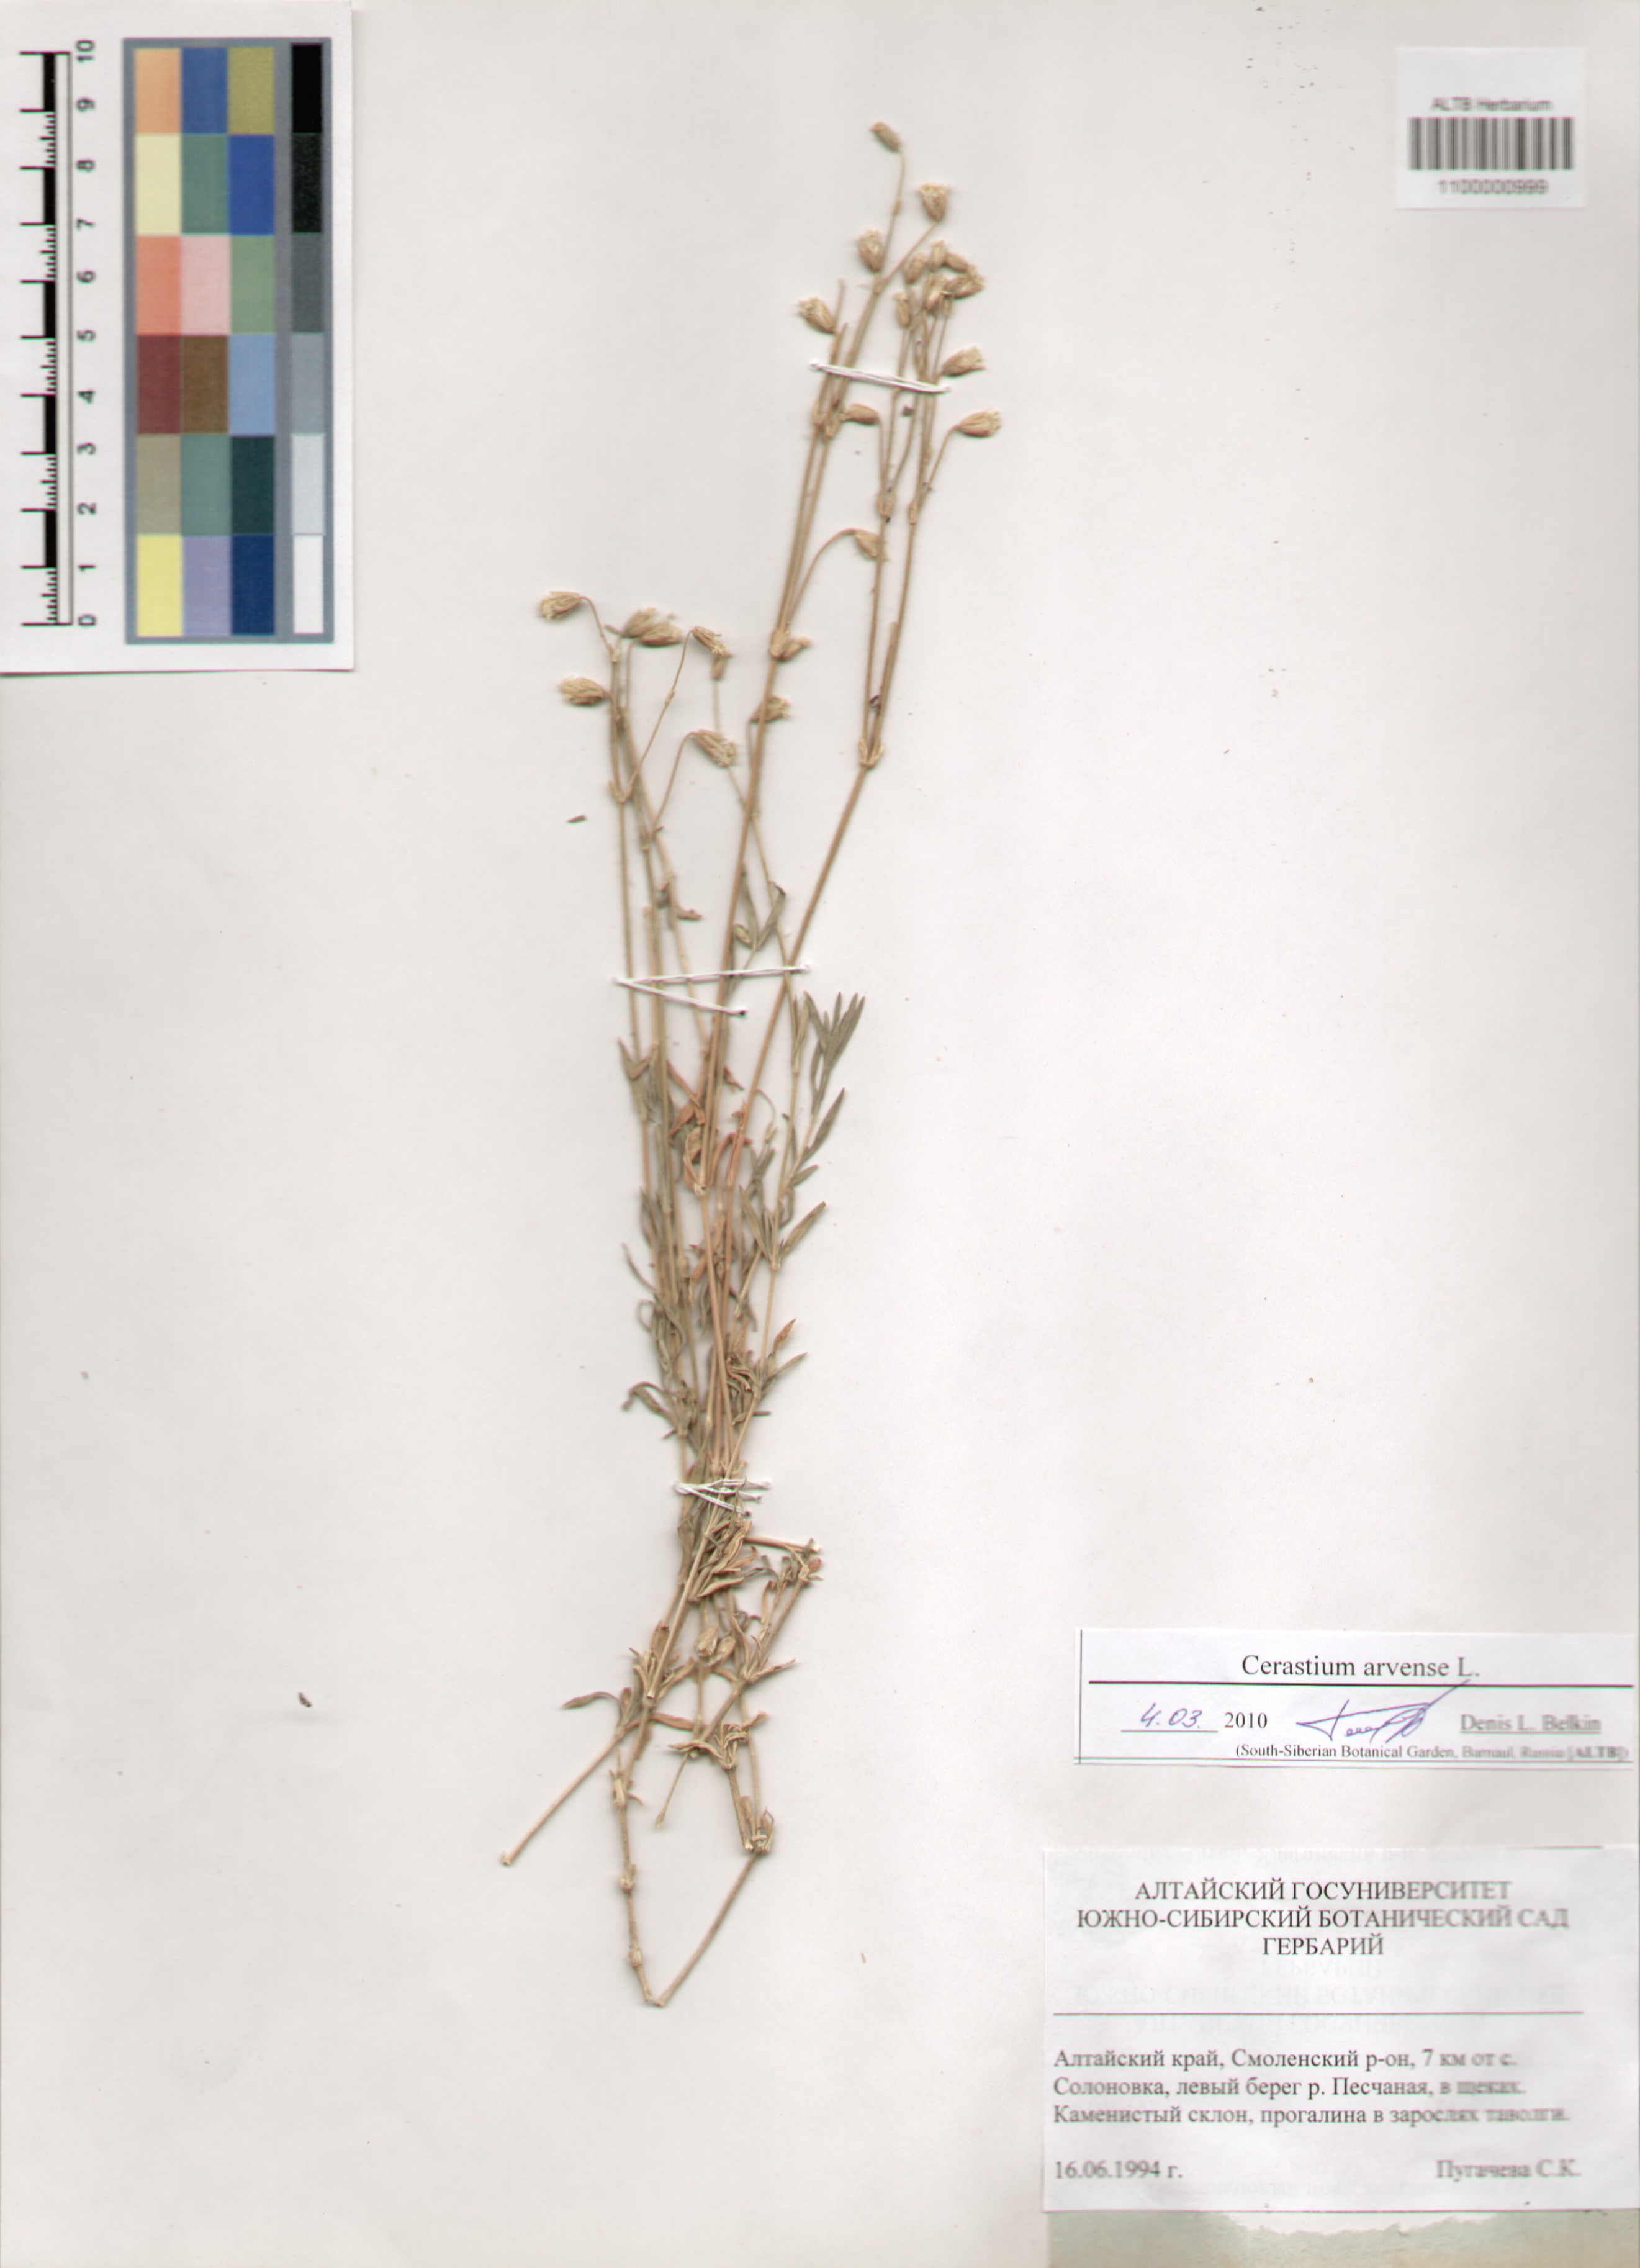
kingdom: Plantae
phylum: Tracheophyta
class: Magnoliopsida
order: Caryophyllales
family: Caryophyllaceae
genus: Cerastium
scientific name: Cerastium arvense
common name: Field mouse-ear
